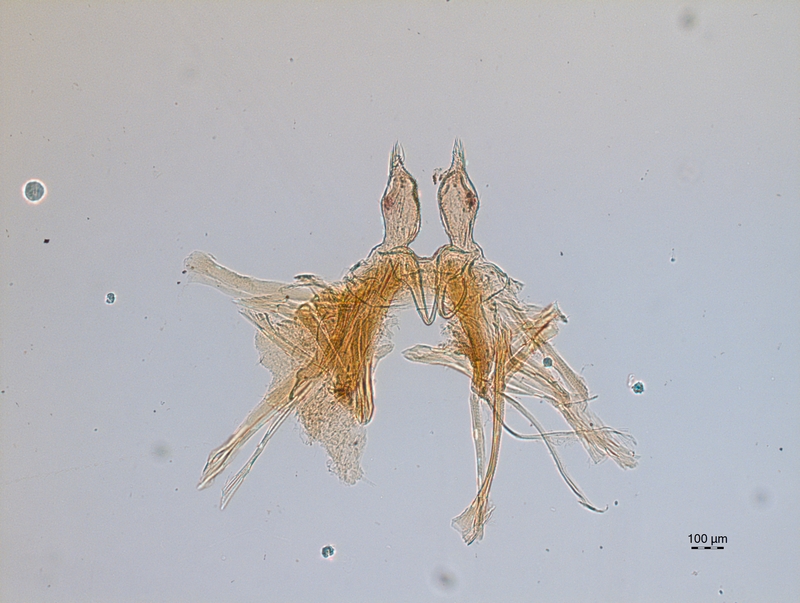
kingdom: Animalia
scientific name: Animalia
